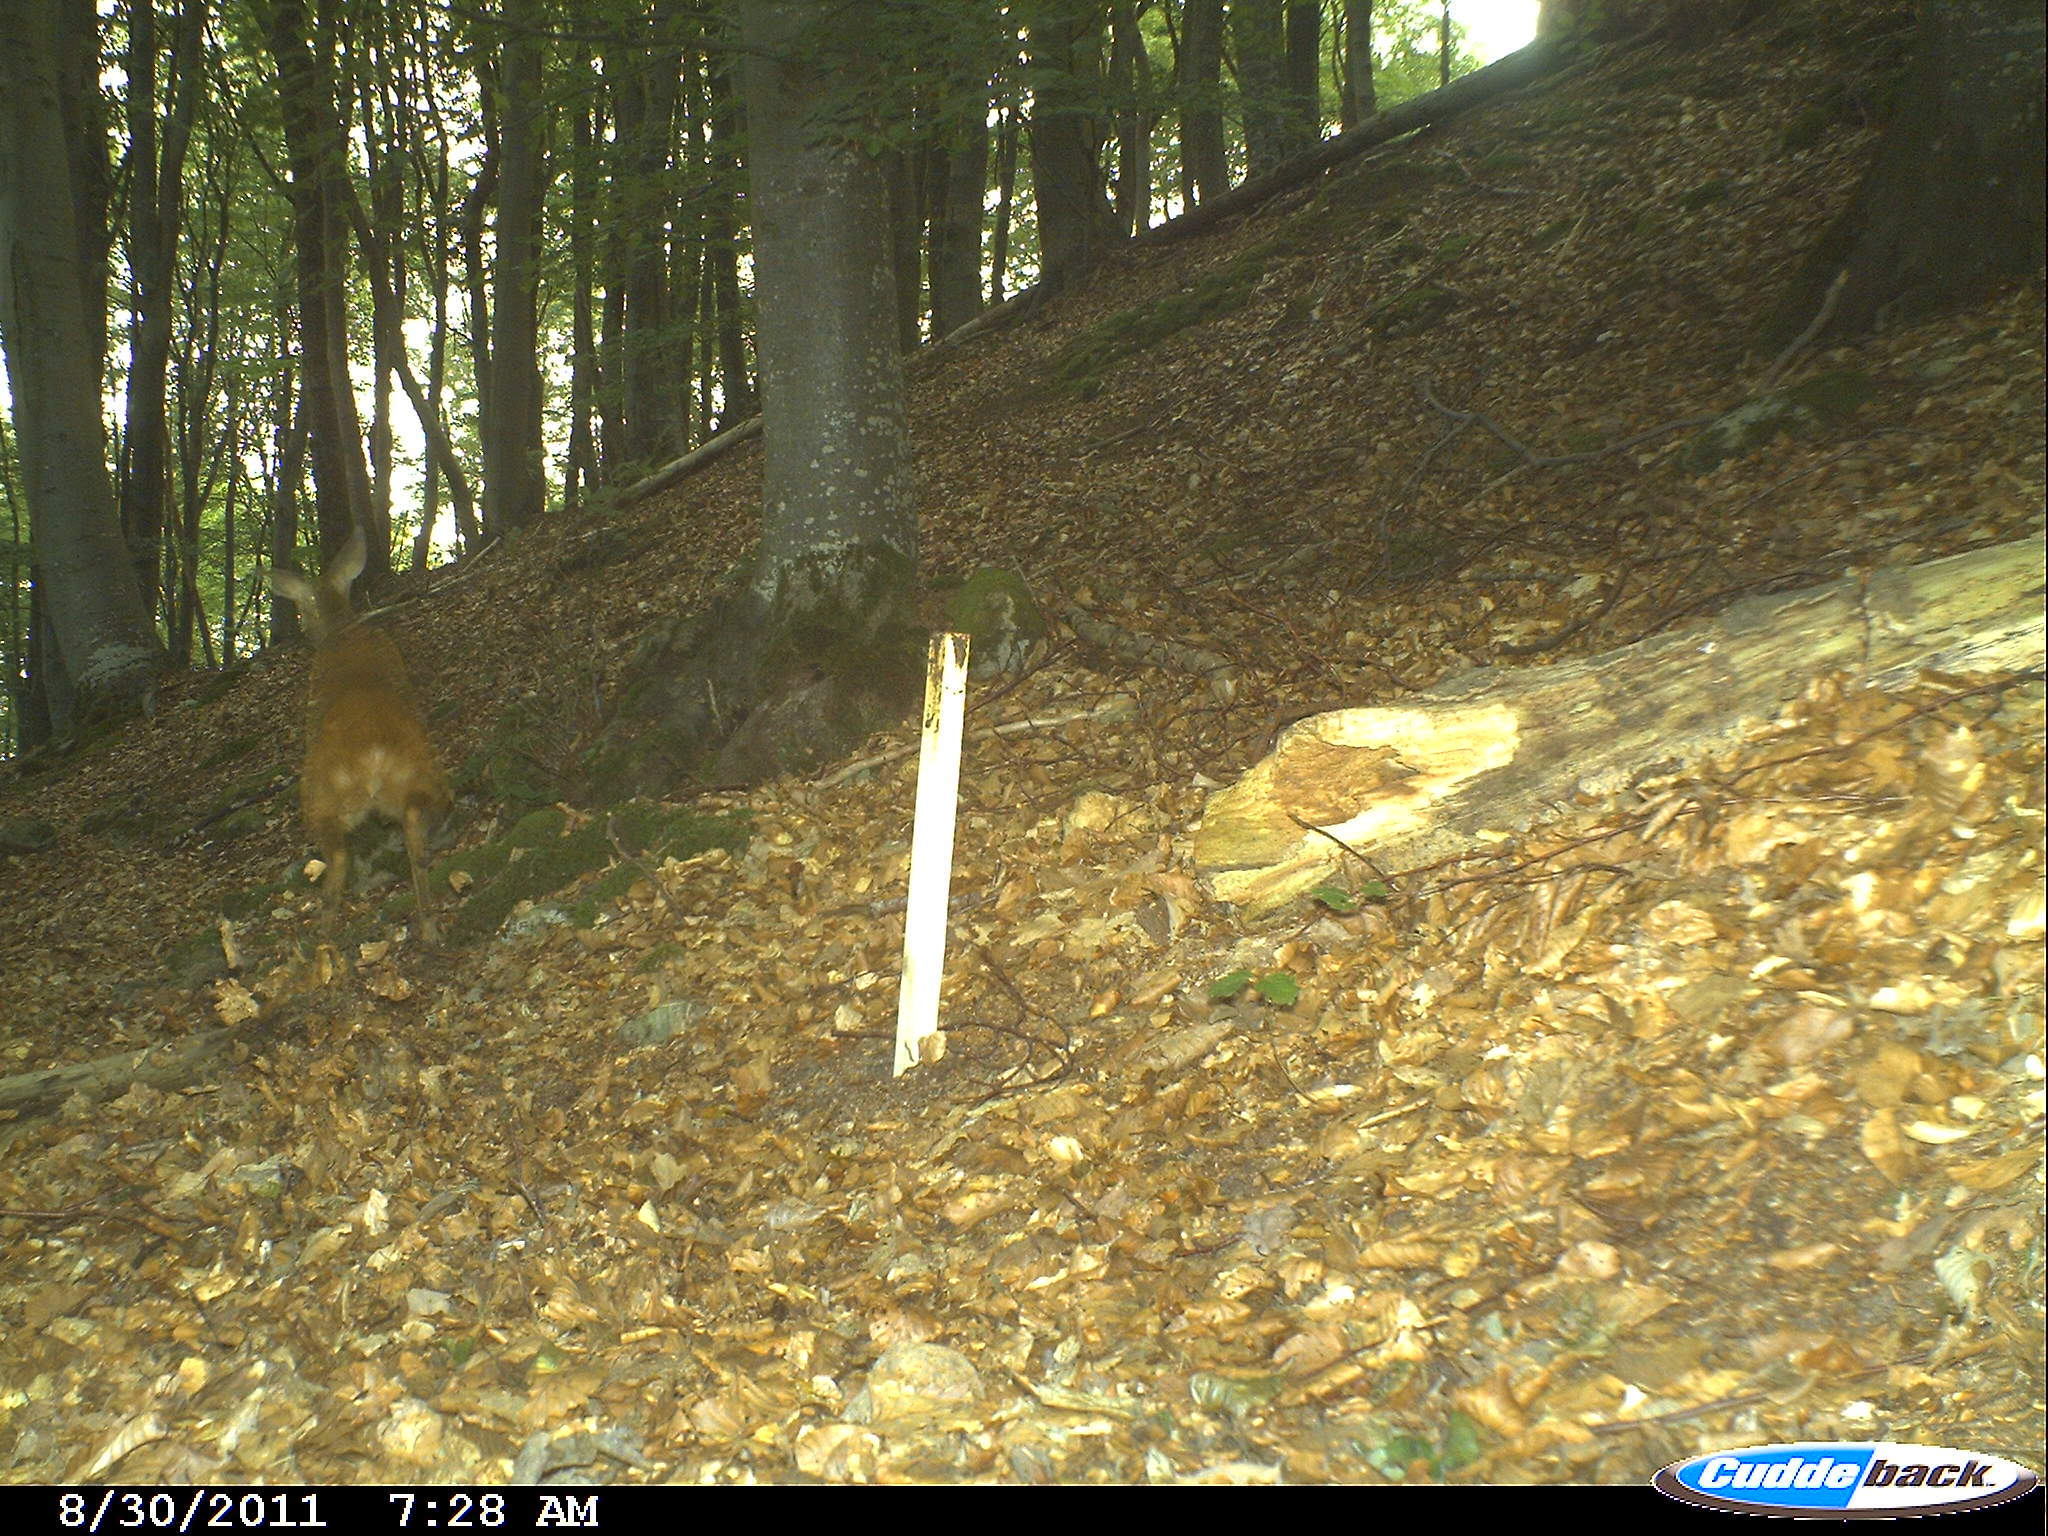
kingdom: Animalia
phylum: Chordata
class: Mammalia
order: Artiodactyla
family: Cervidae
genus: Capreolus
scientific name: Capreolus capreolus
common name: Western roe deer
